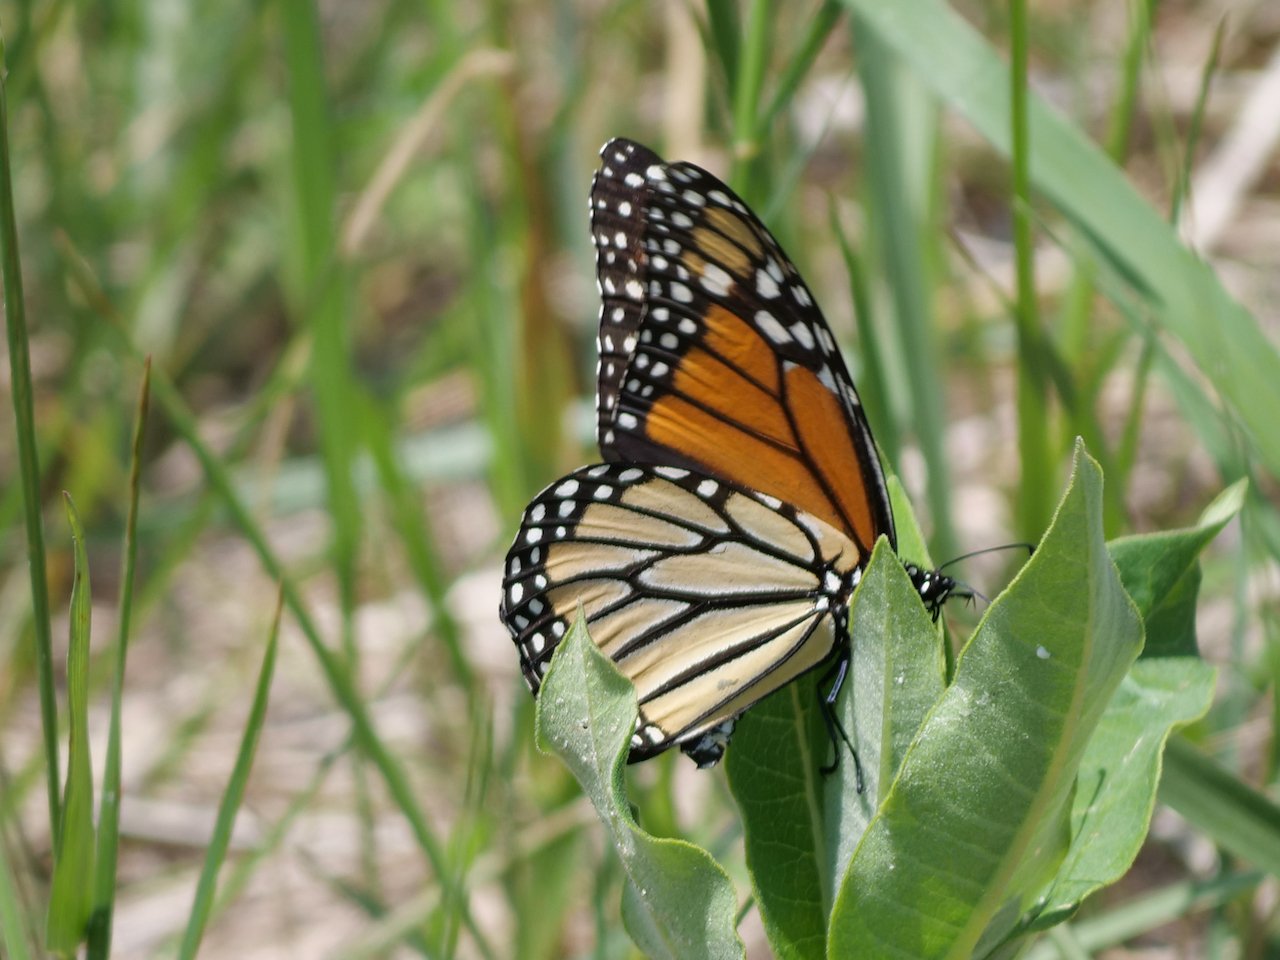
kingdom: Animalia
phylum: Arthropoda
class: Insecta
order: Lepidoptera
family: Nymphalidae
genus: Danaus
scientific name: Danaus plexippus
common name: Monarch
